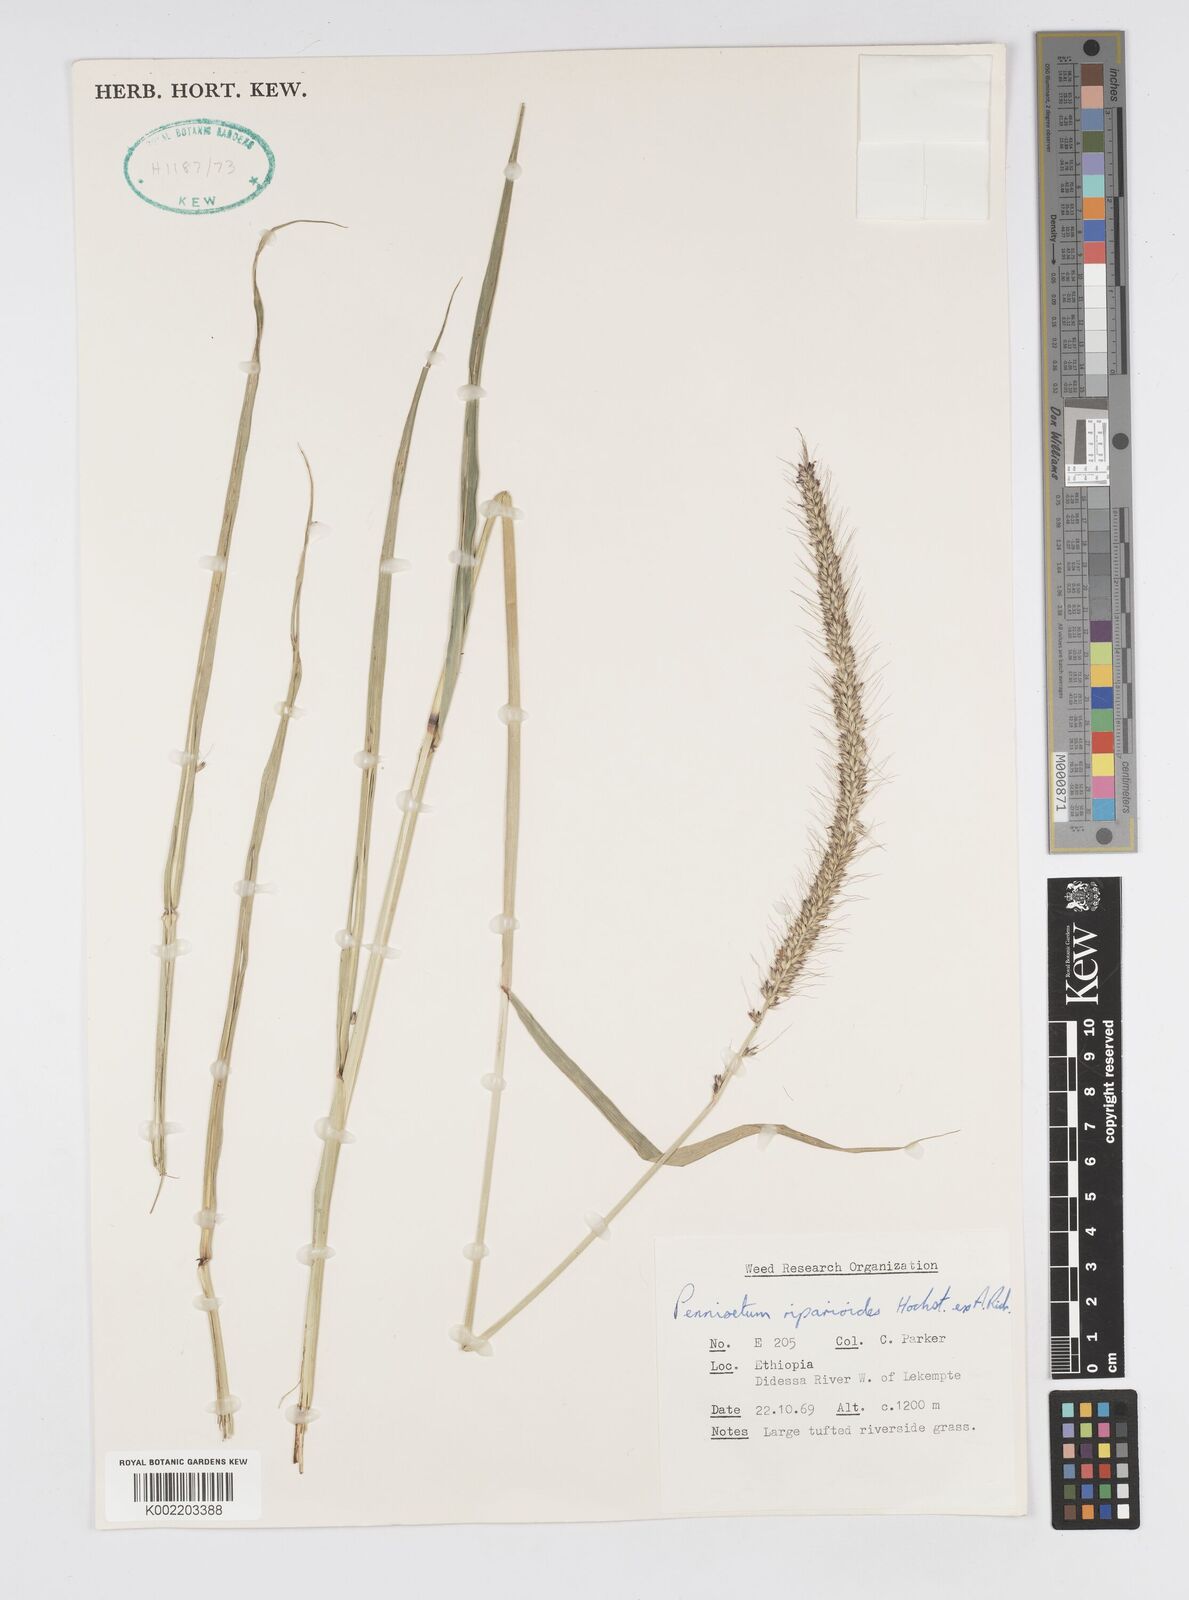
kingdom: Plantae
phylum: Tracheophyta
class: Liliopsida
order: Poales
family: Poaceae
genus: Cenchrus
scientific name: Cenchrus caudatus
